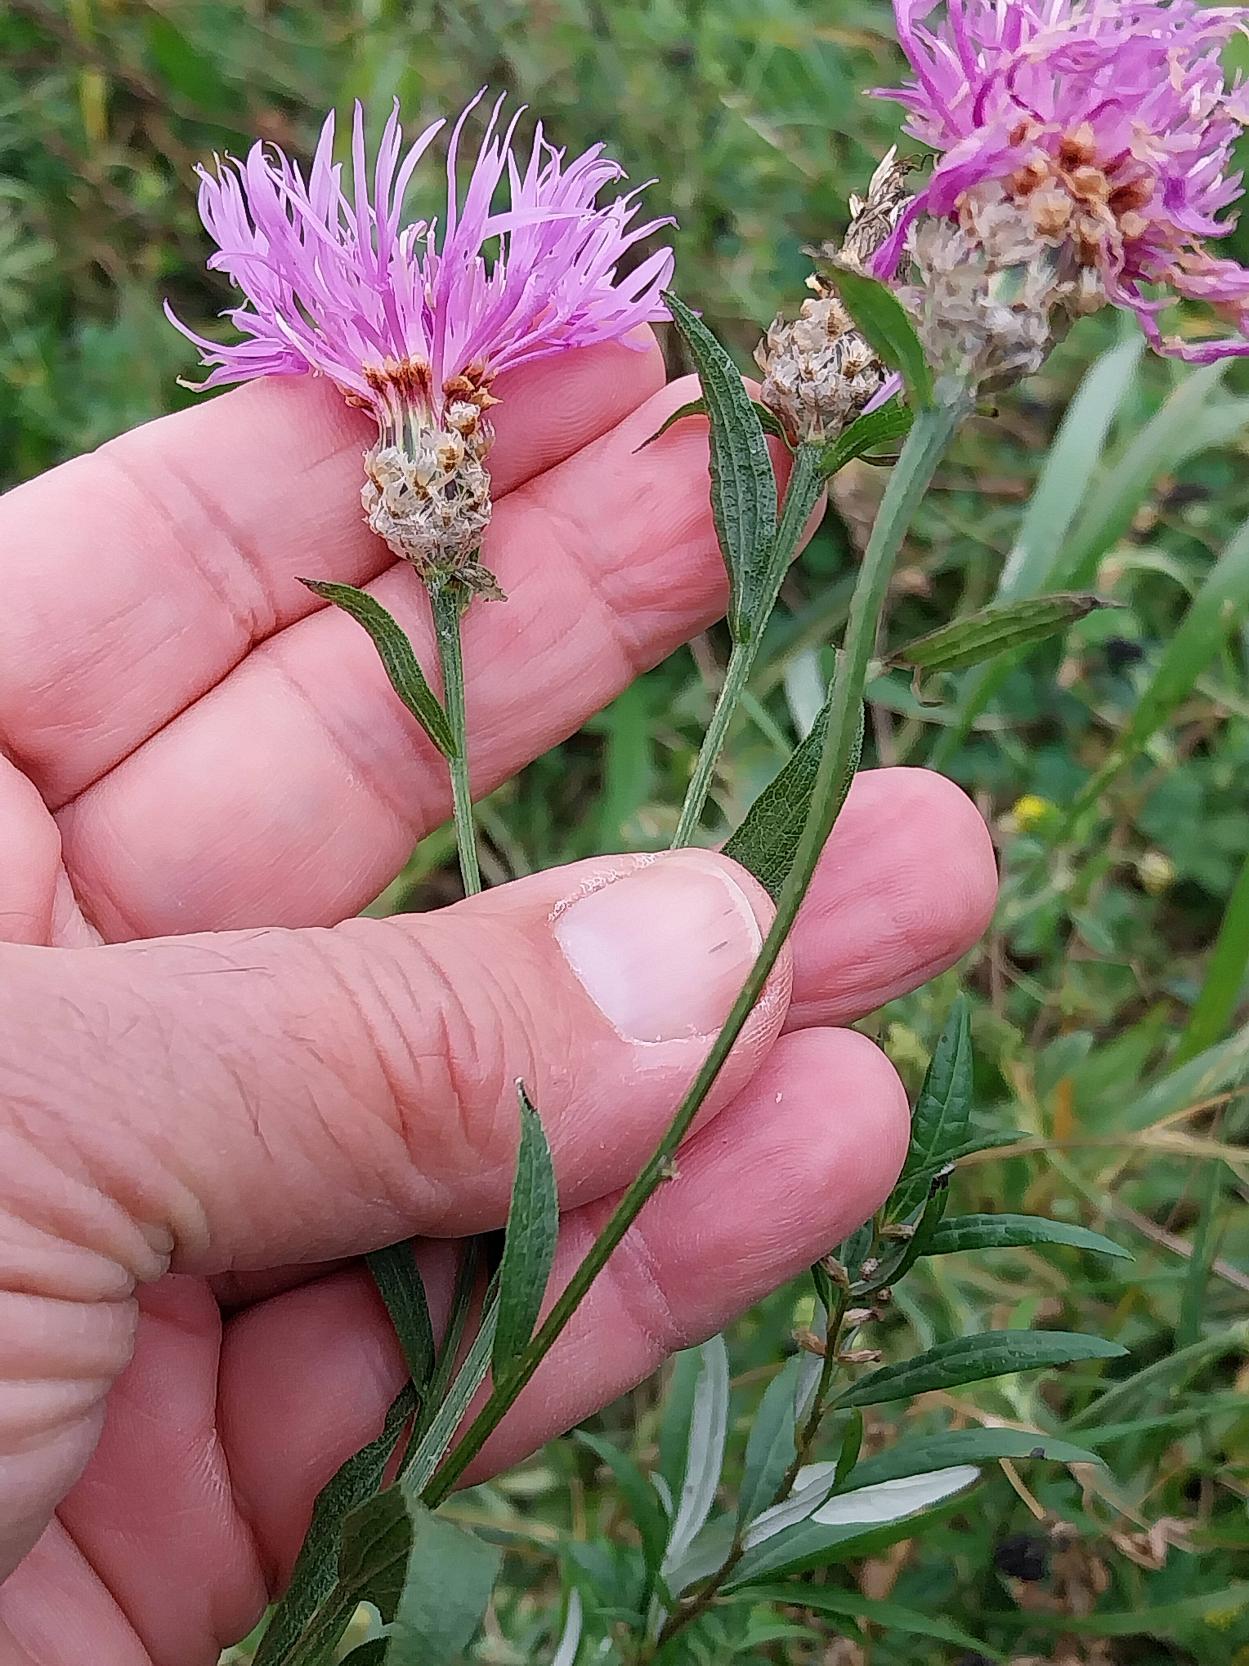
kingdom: Plantae
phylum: Tracheophyta
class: Magnoliopsida
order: Asterales
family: Asteraceae
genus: Centaurea
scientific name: Centaurea jacea
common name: Almindelig knopurt
